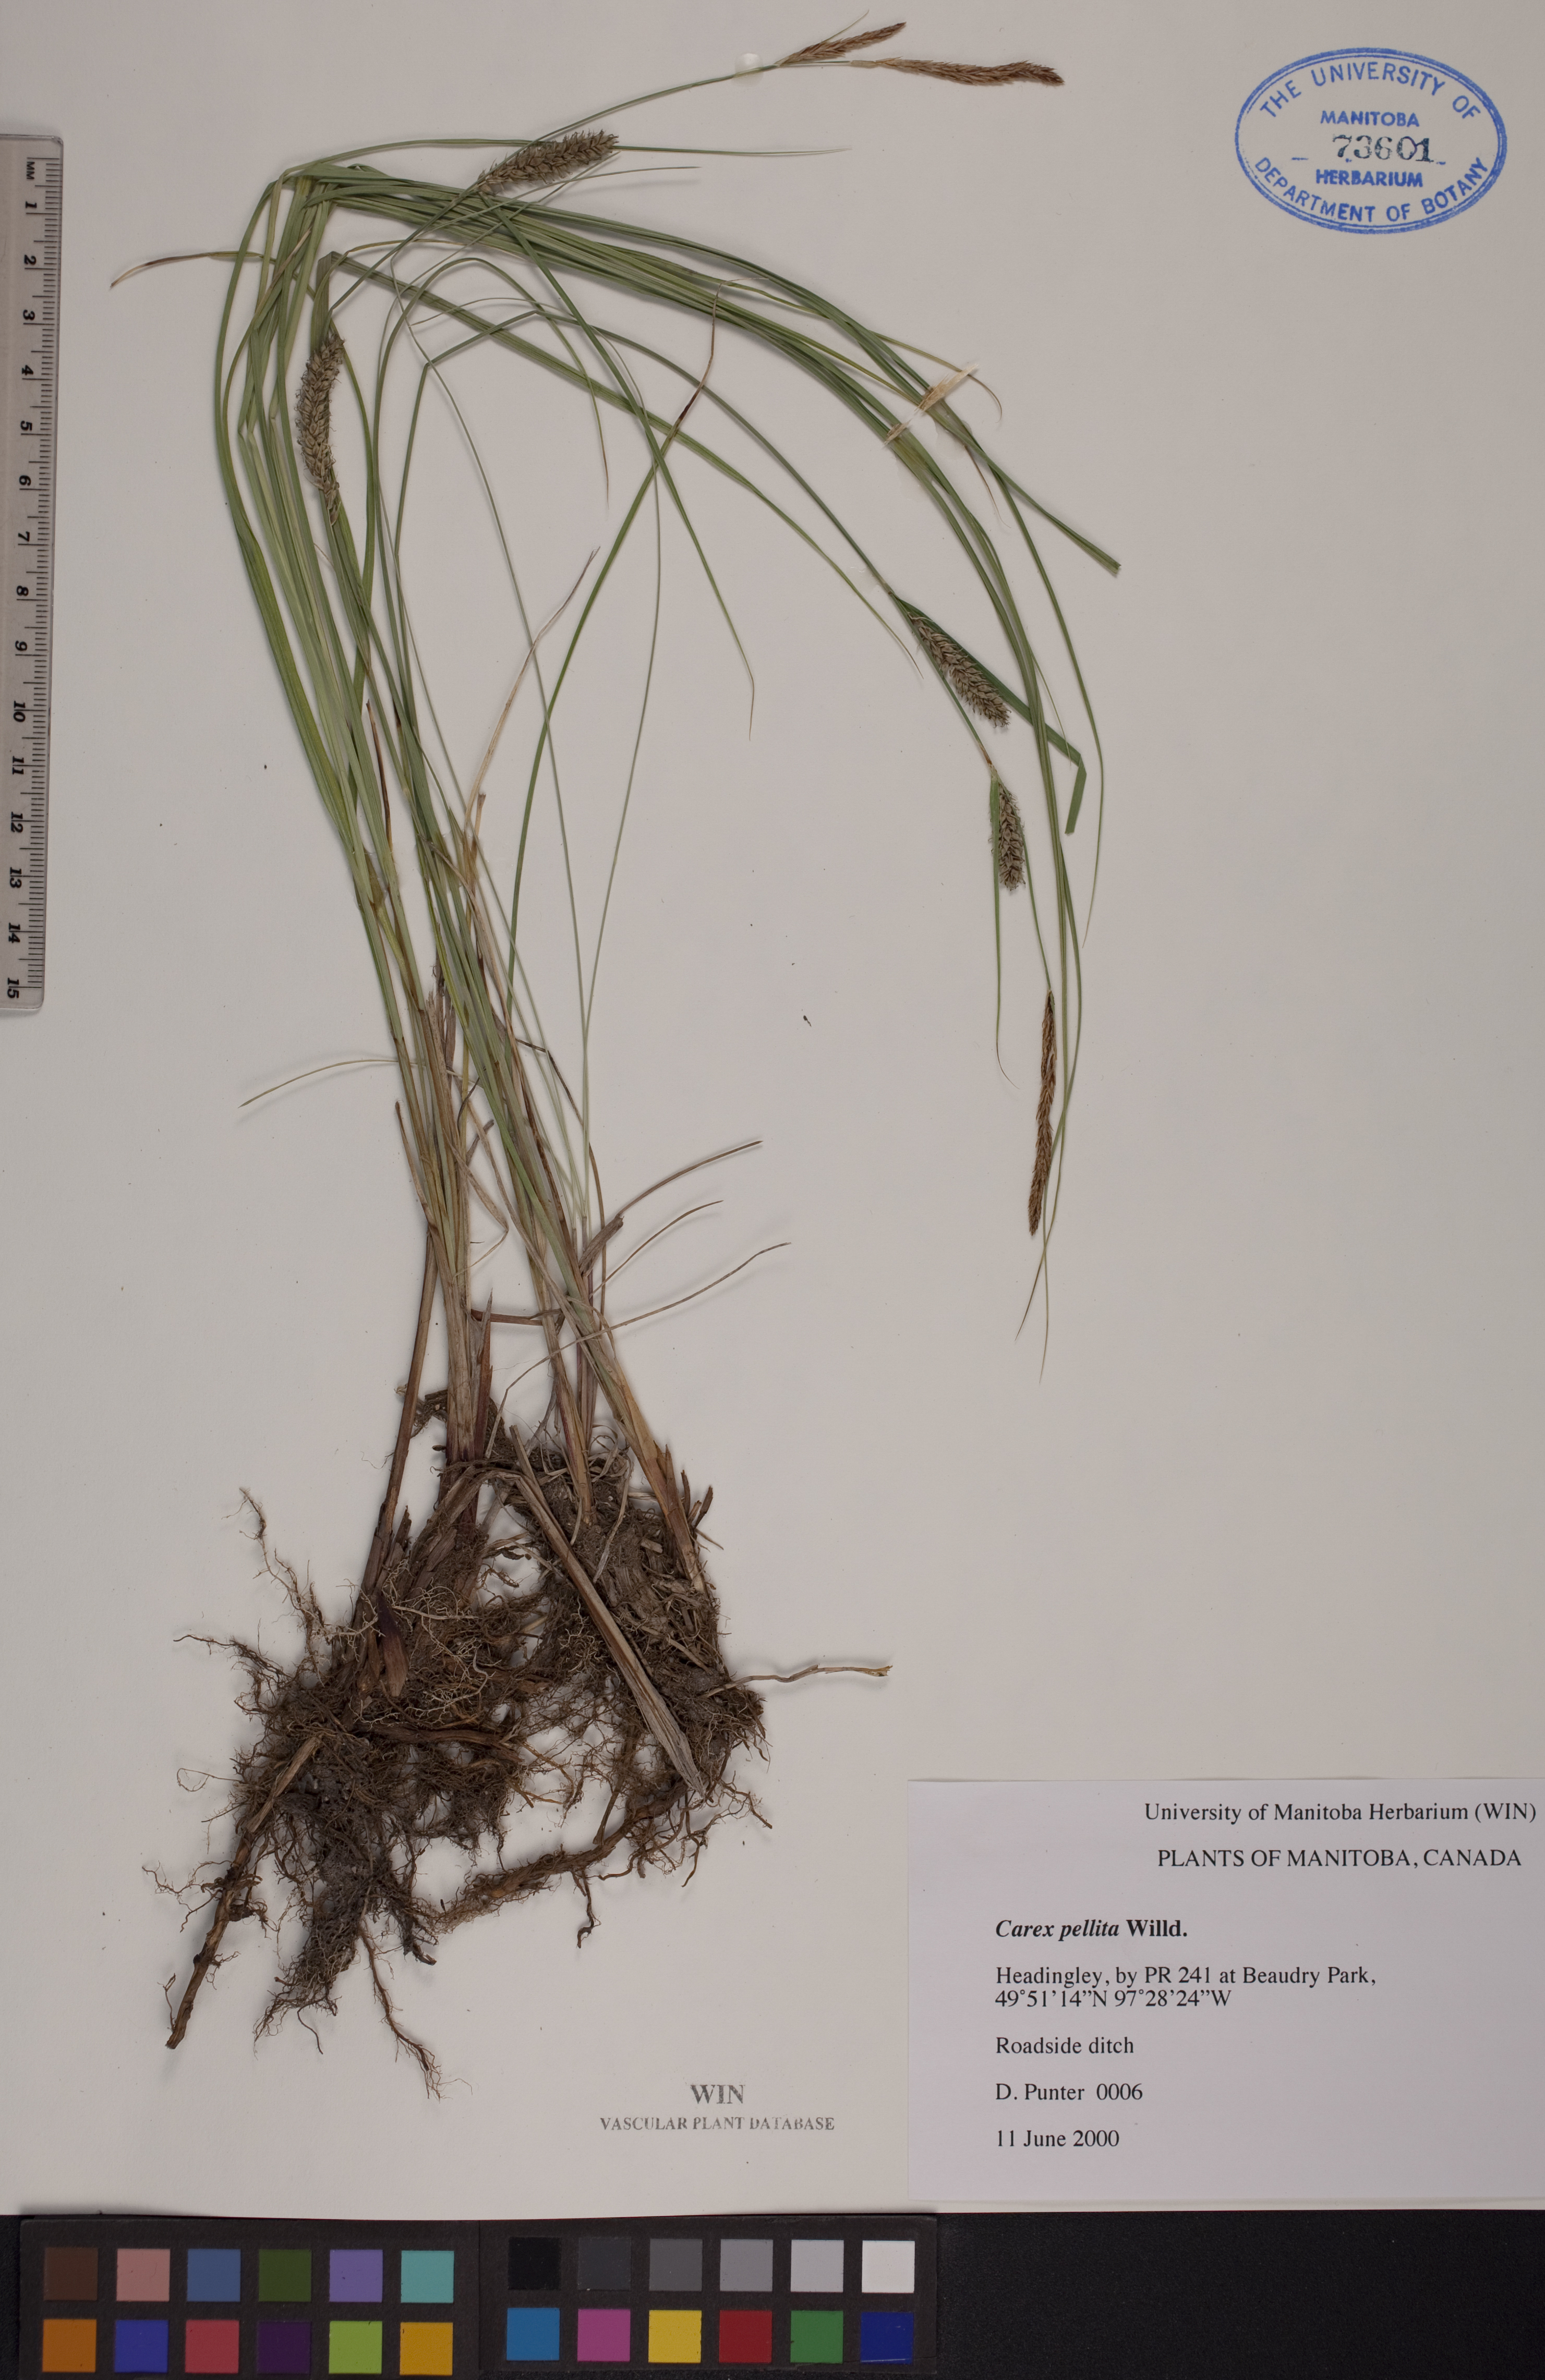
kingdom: Plantae
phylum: Tracheophyta
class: Liliopsida
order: Poales
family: Cyperaceae
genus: Carex
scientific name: Carex pellita
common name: Woolly sedge
